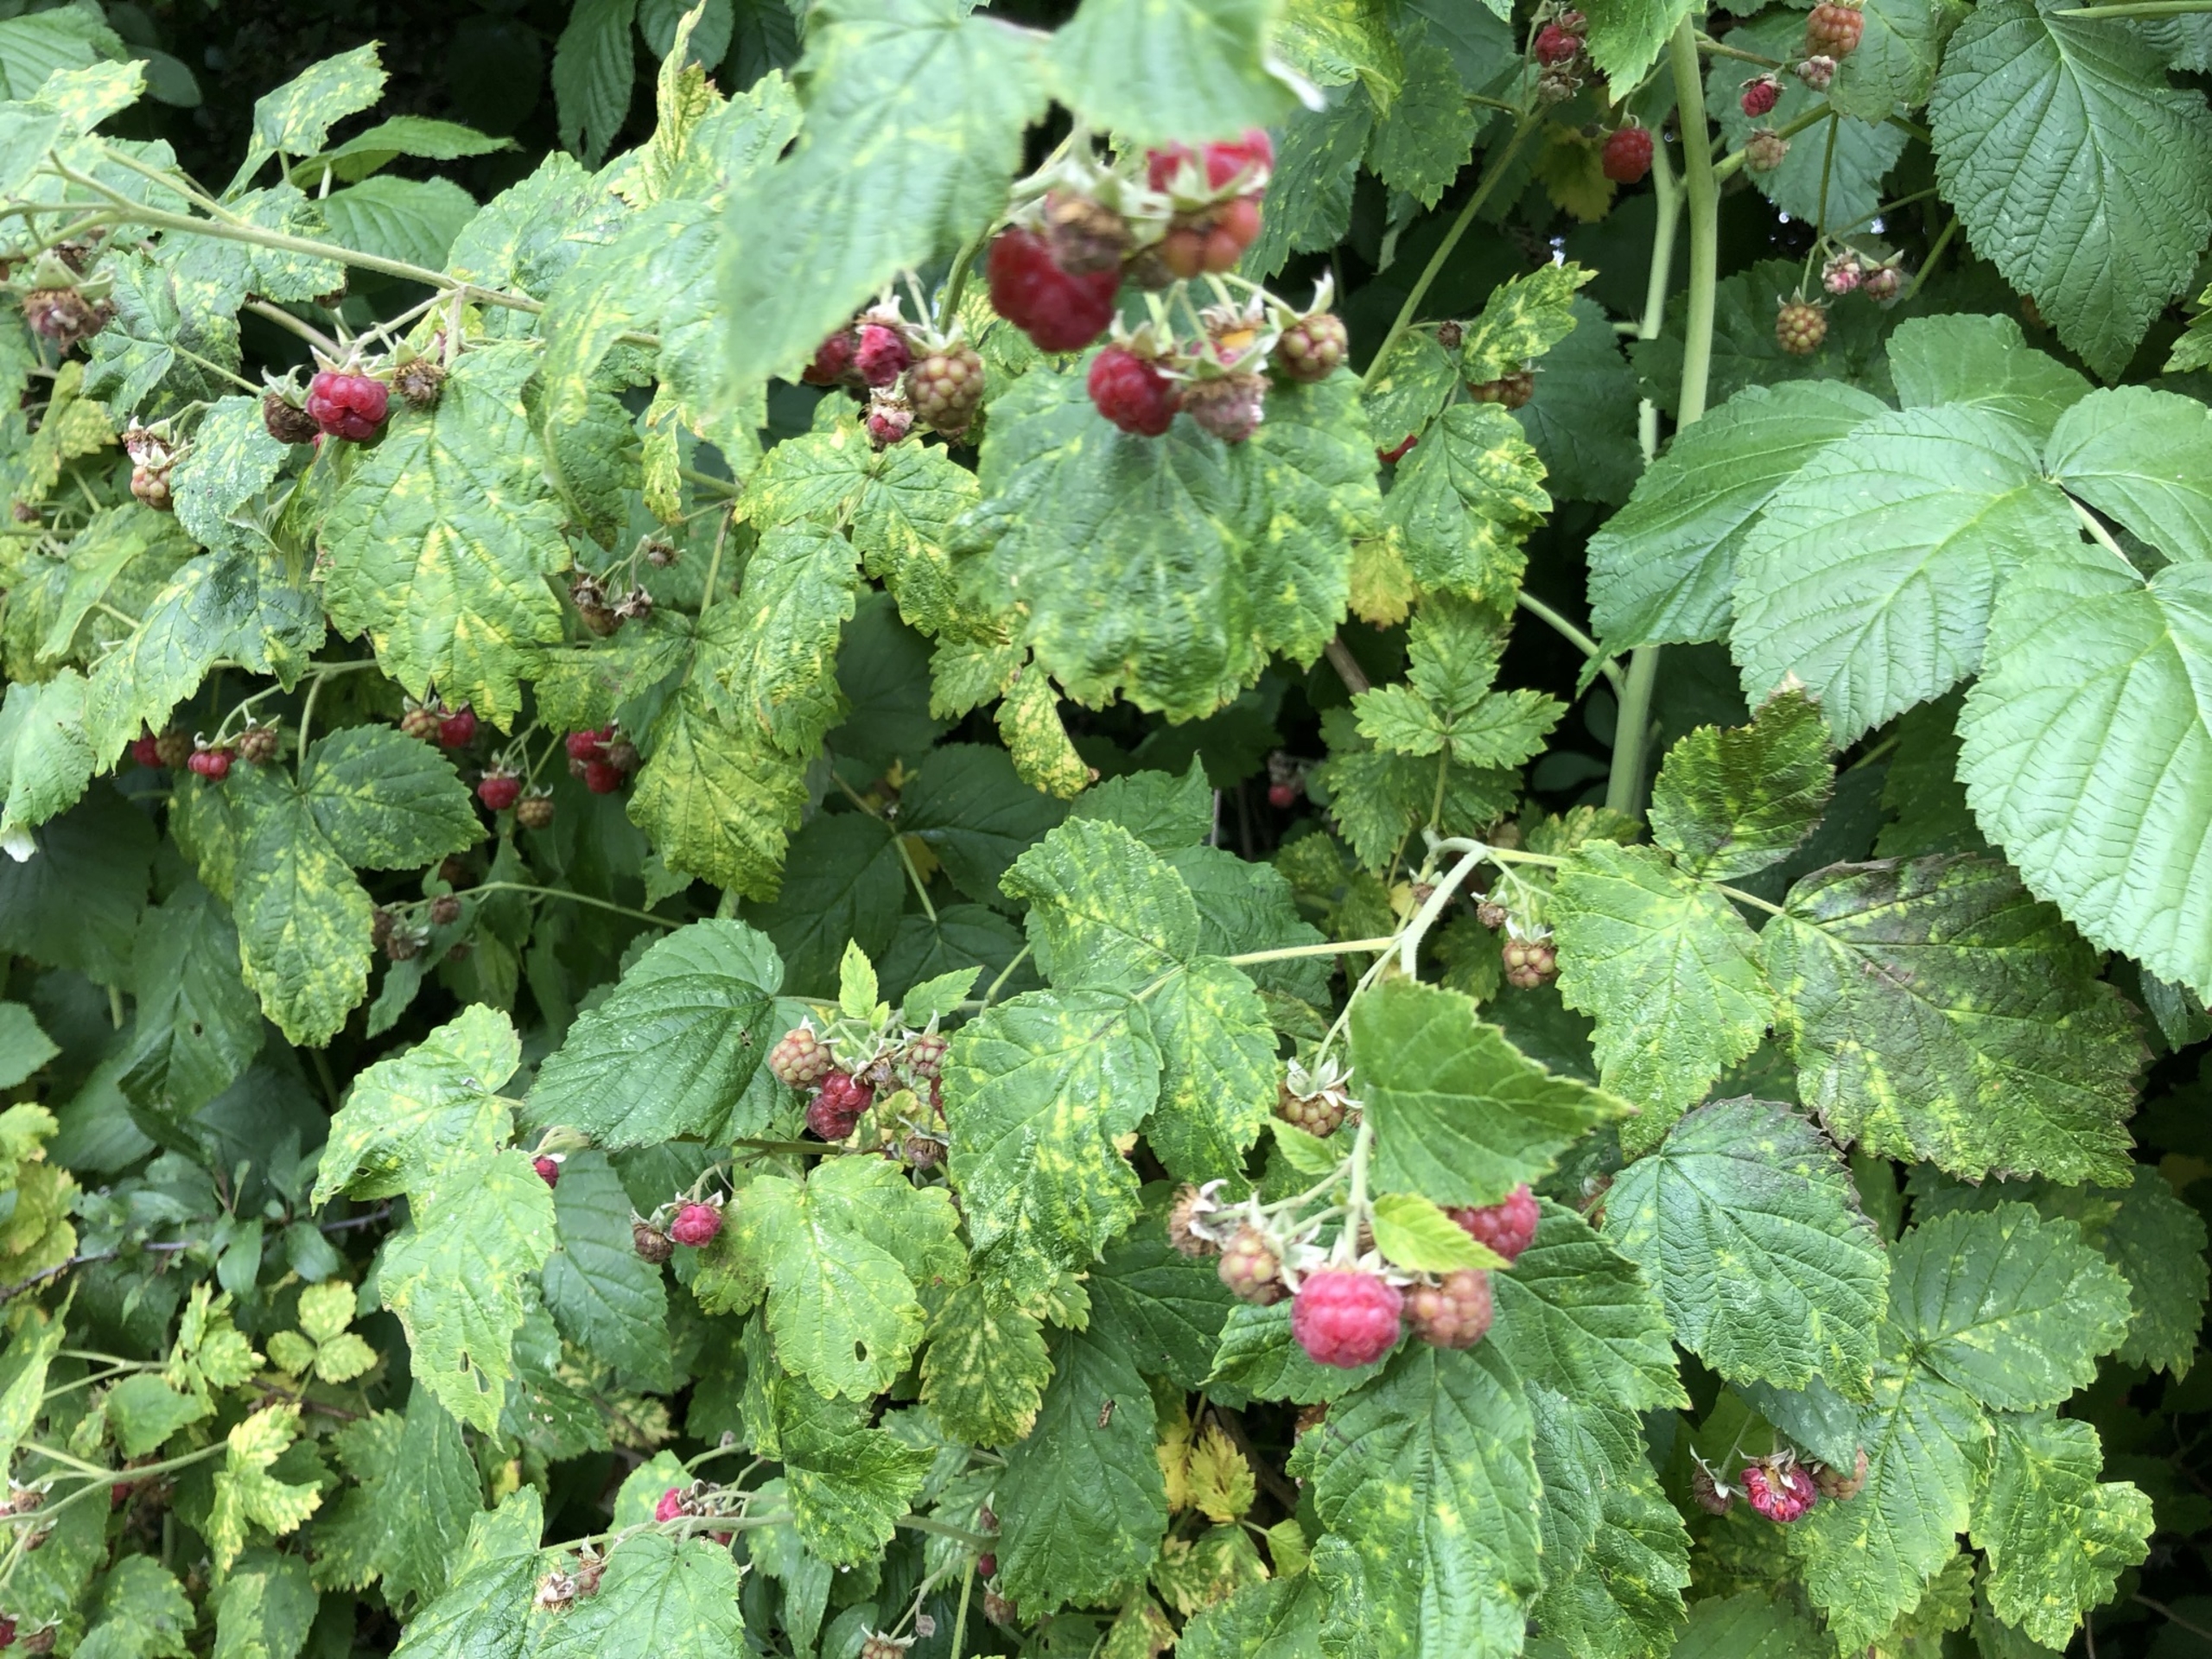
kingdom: Plantae
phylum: Tracheophyta
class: Magnoliopsida
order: Rosales
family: Rosaceae
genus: Rubus
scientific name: Rubus idaeus
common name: Hindbær
